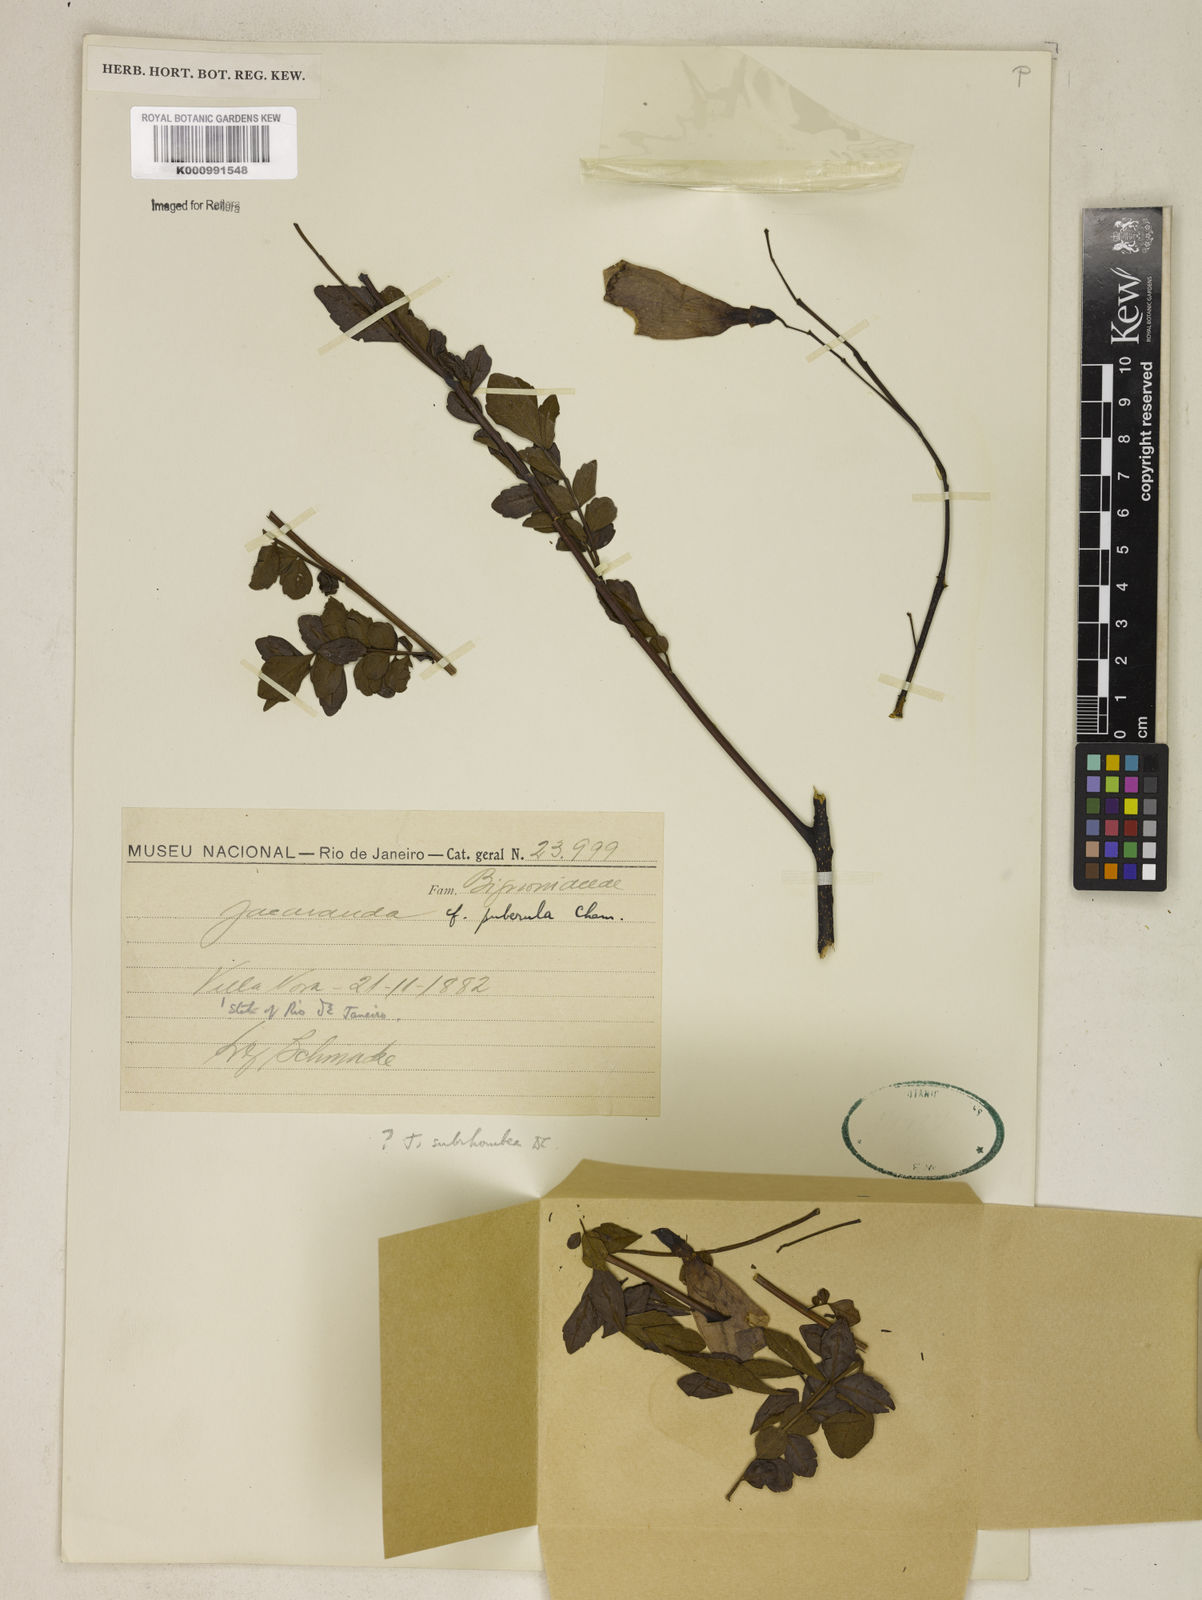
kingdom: Plantae
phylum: Tracheophyta
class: Magnoliopsida
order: Lamiales
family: Bignoniaceae
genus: Jacaranda
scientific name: Jacaranda puberula
